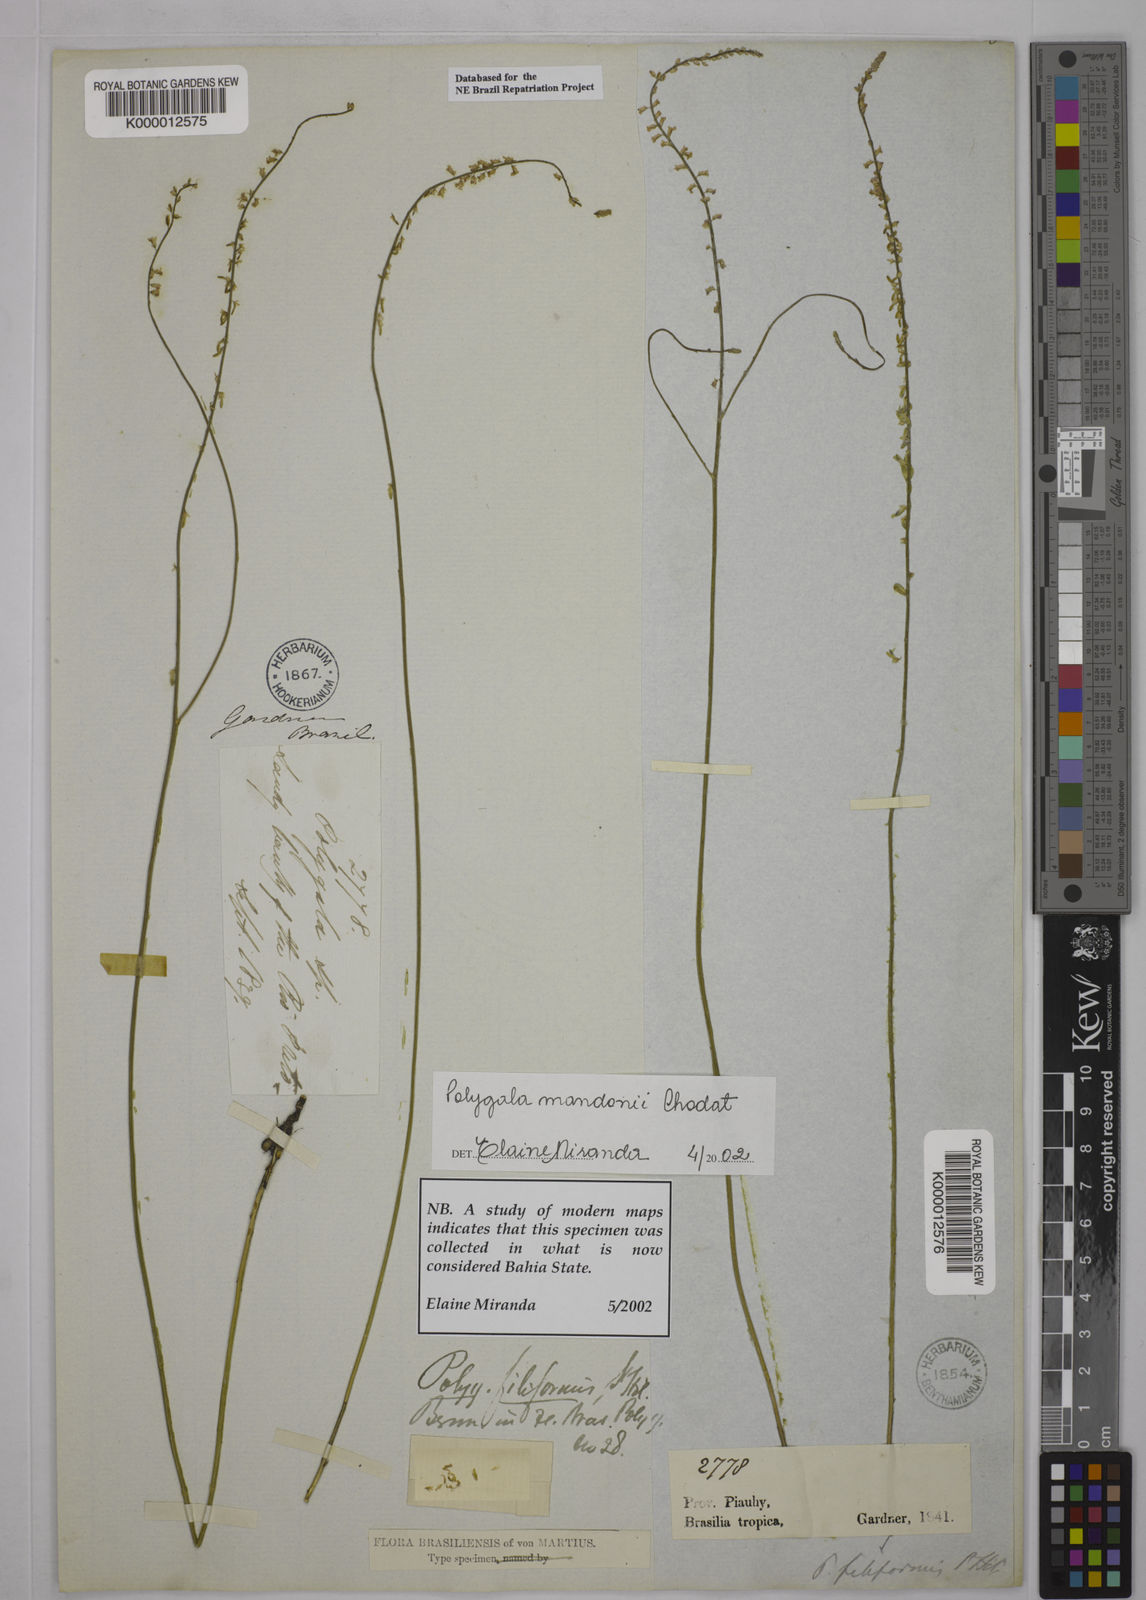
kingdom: Plantae
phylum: Tracheophyta
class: Magnoliopsida
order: Fabales
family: Polygalaceae
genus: Polygala
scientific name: Polygala mandonii
